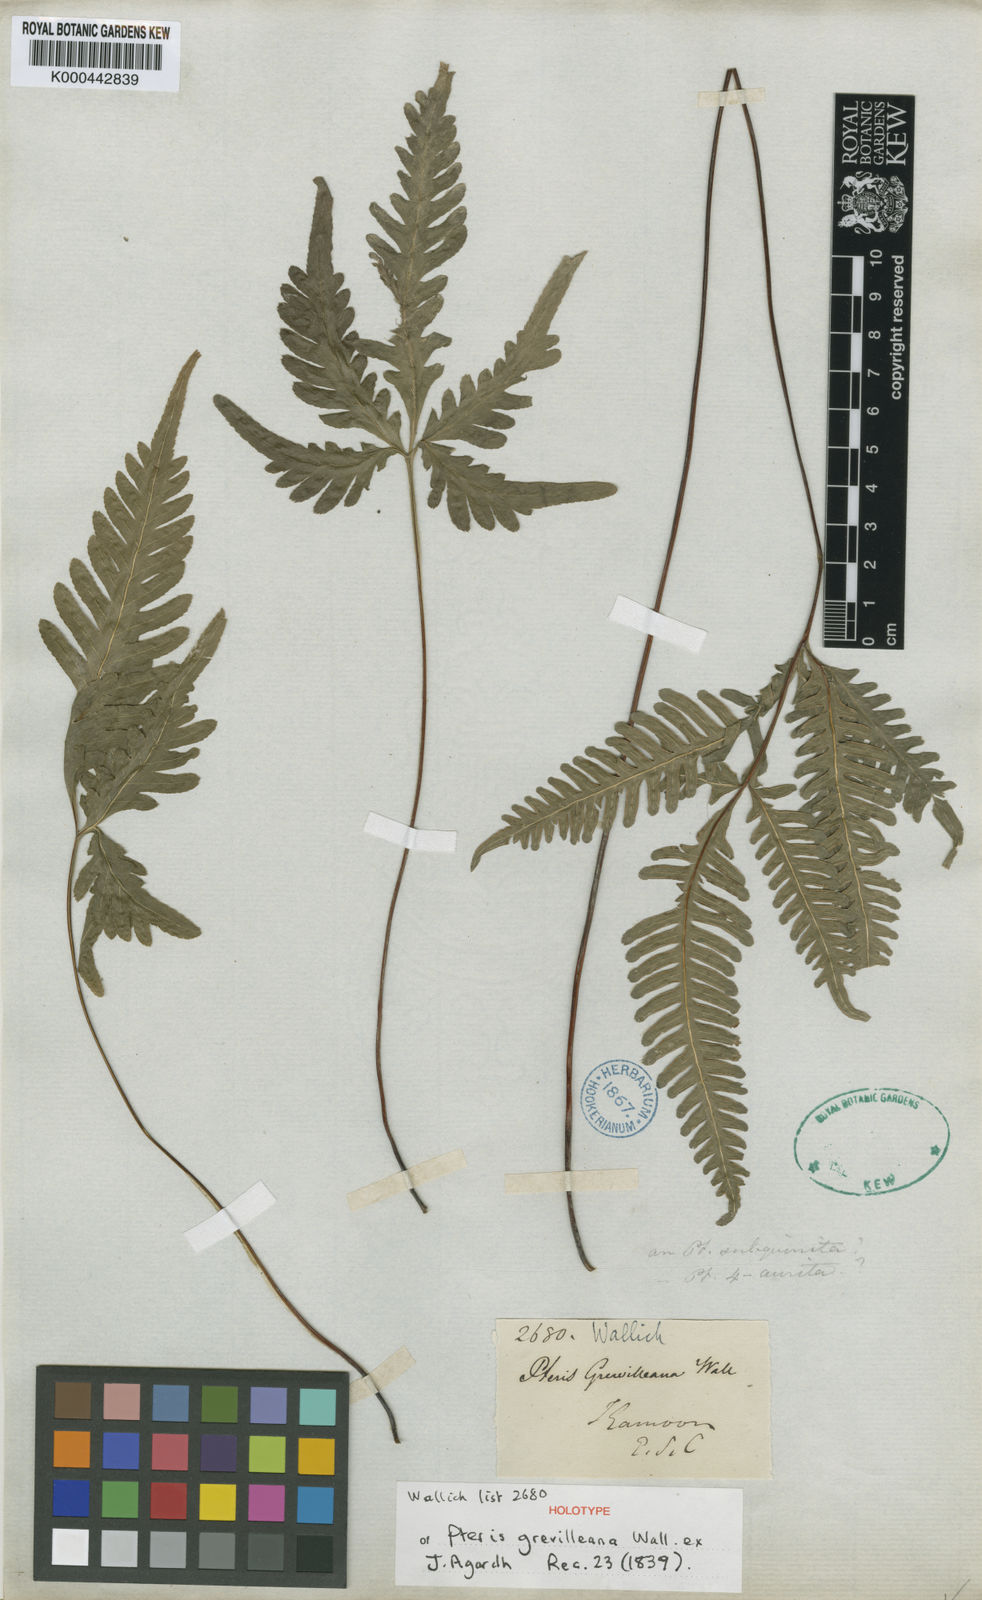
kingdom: Plantae
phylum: Tracheophyta
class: Polypodiopsida
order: Polypodiales
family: Pteridaceae
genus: Pteris
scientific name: Pteris grevilleana
